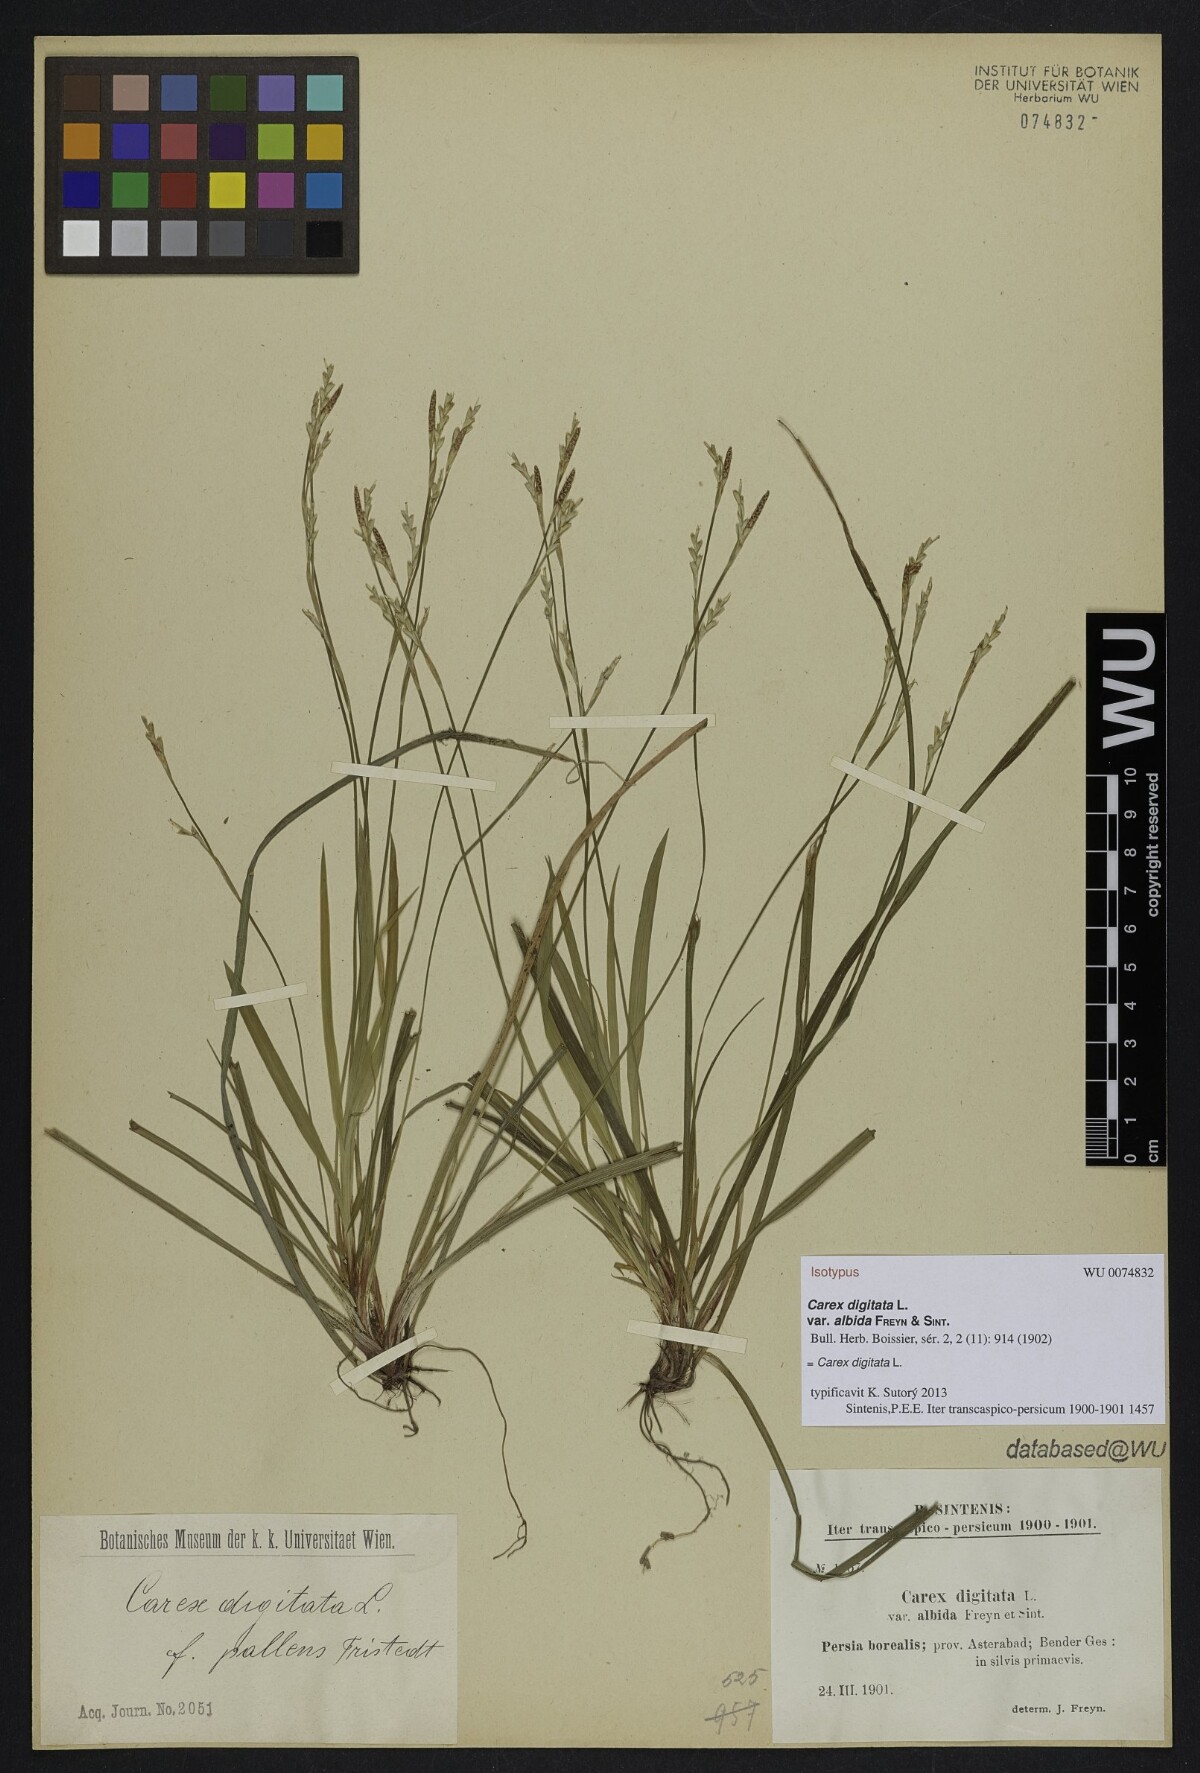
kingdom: Plantae
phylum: Tracheophyta
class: Liliopsida
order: Poales
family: Cyperaceae
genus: Carex
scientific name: Carex digitata
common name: Fingered sedge
